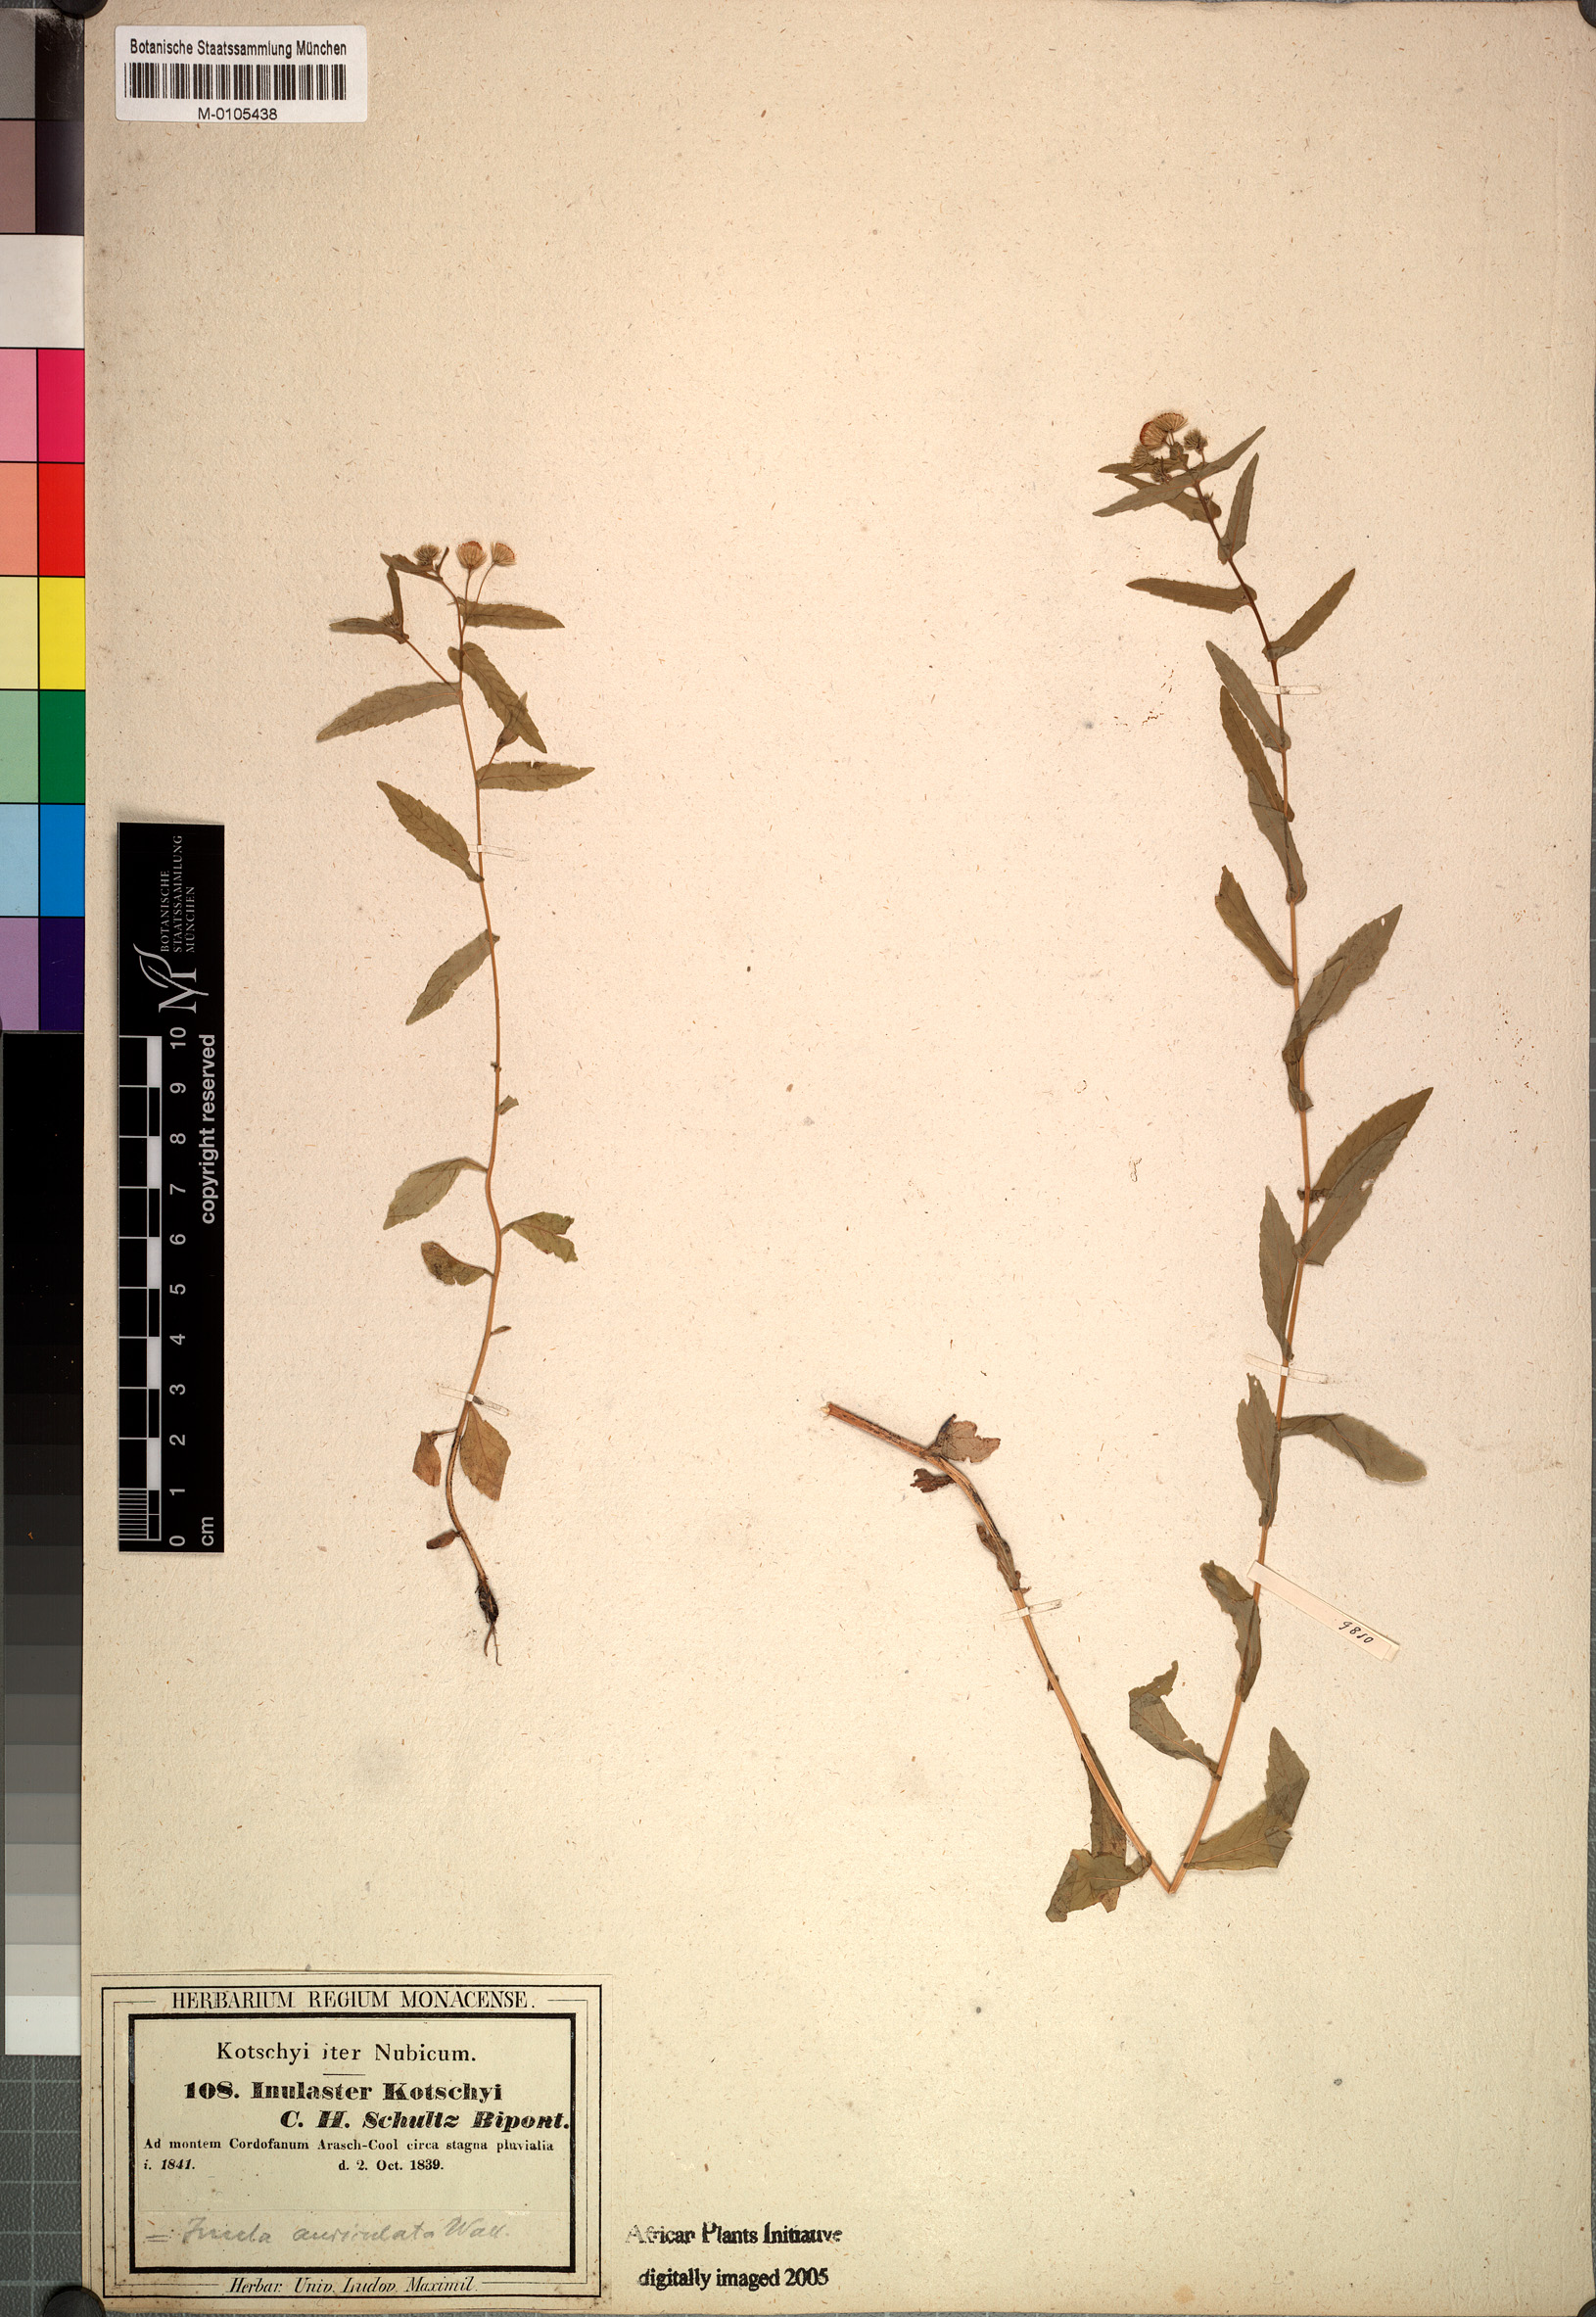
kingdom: Plantae
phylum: Tracheophyta
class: Magnoliopsida
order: Asterales
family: Asteraceae
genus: Vicoa
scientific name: Vicoa indica
